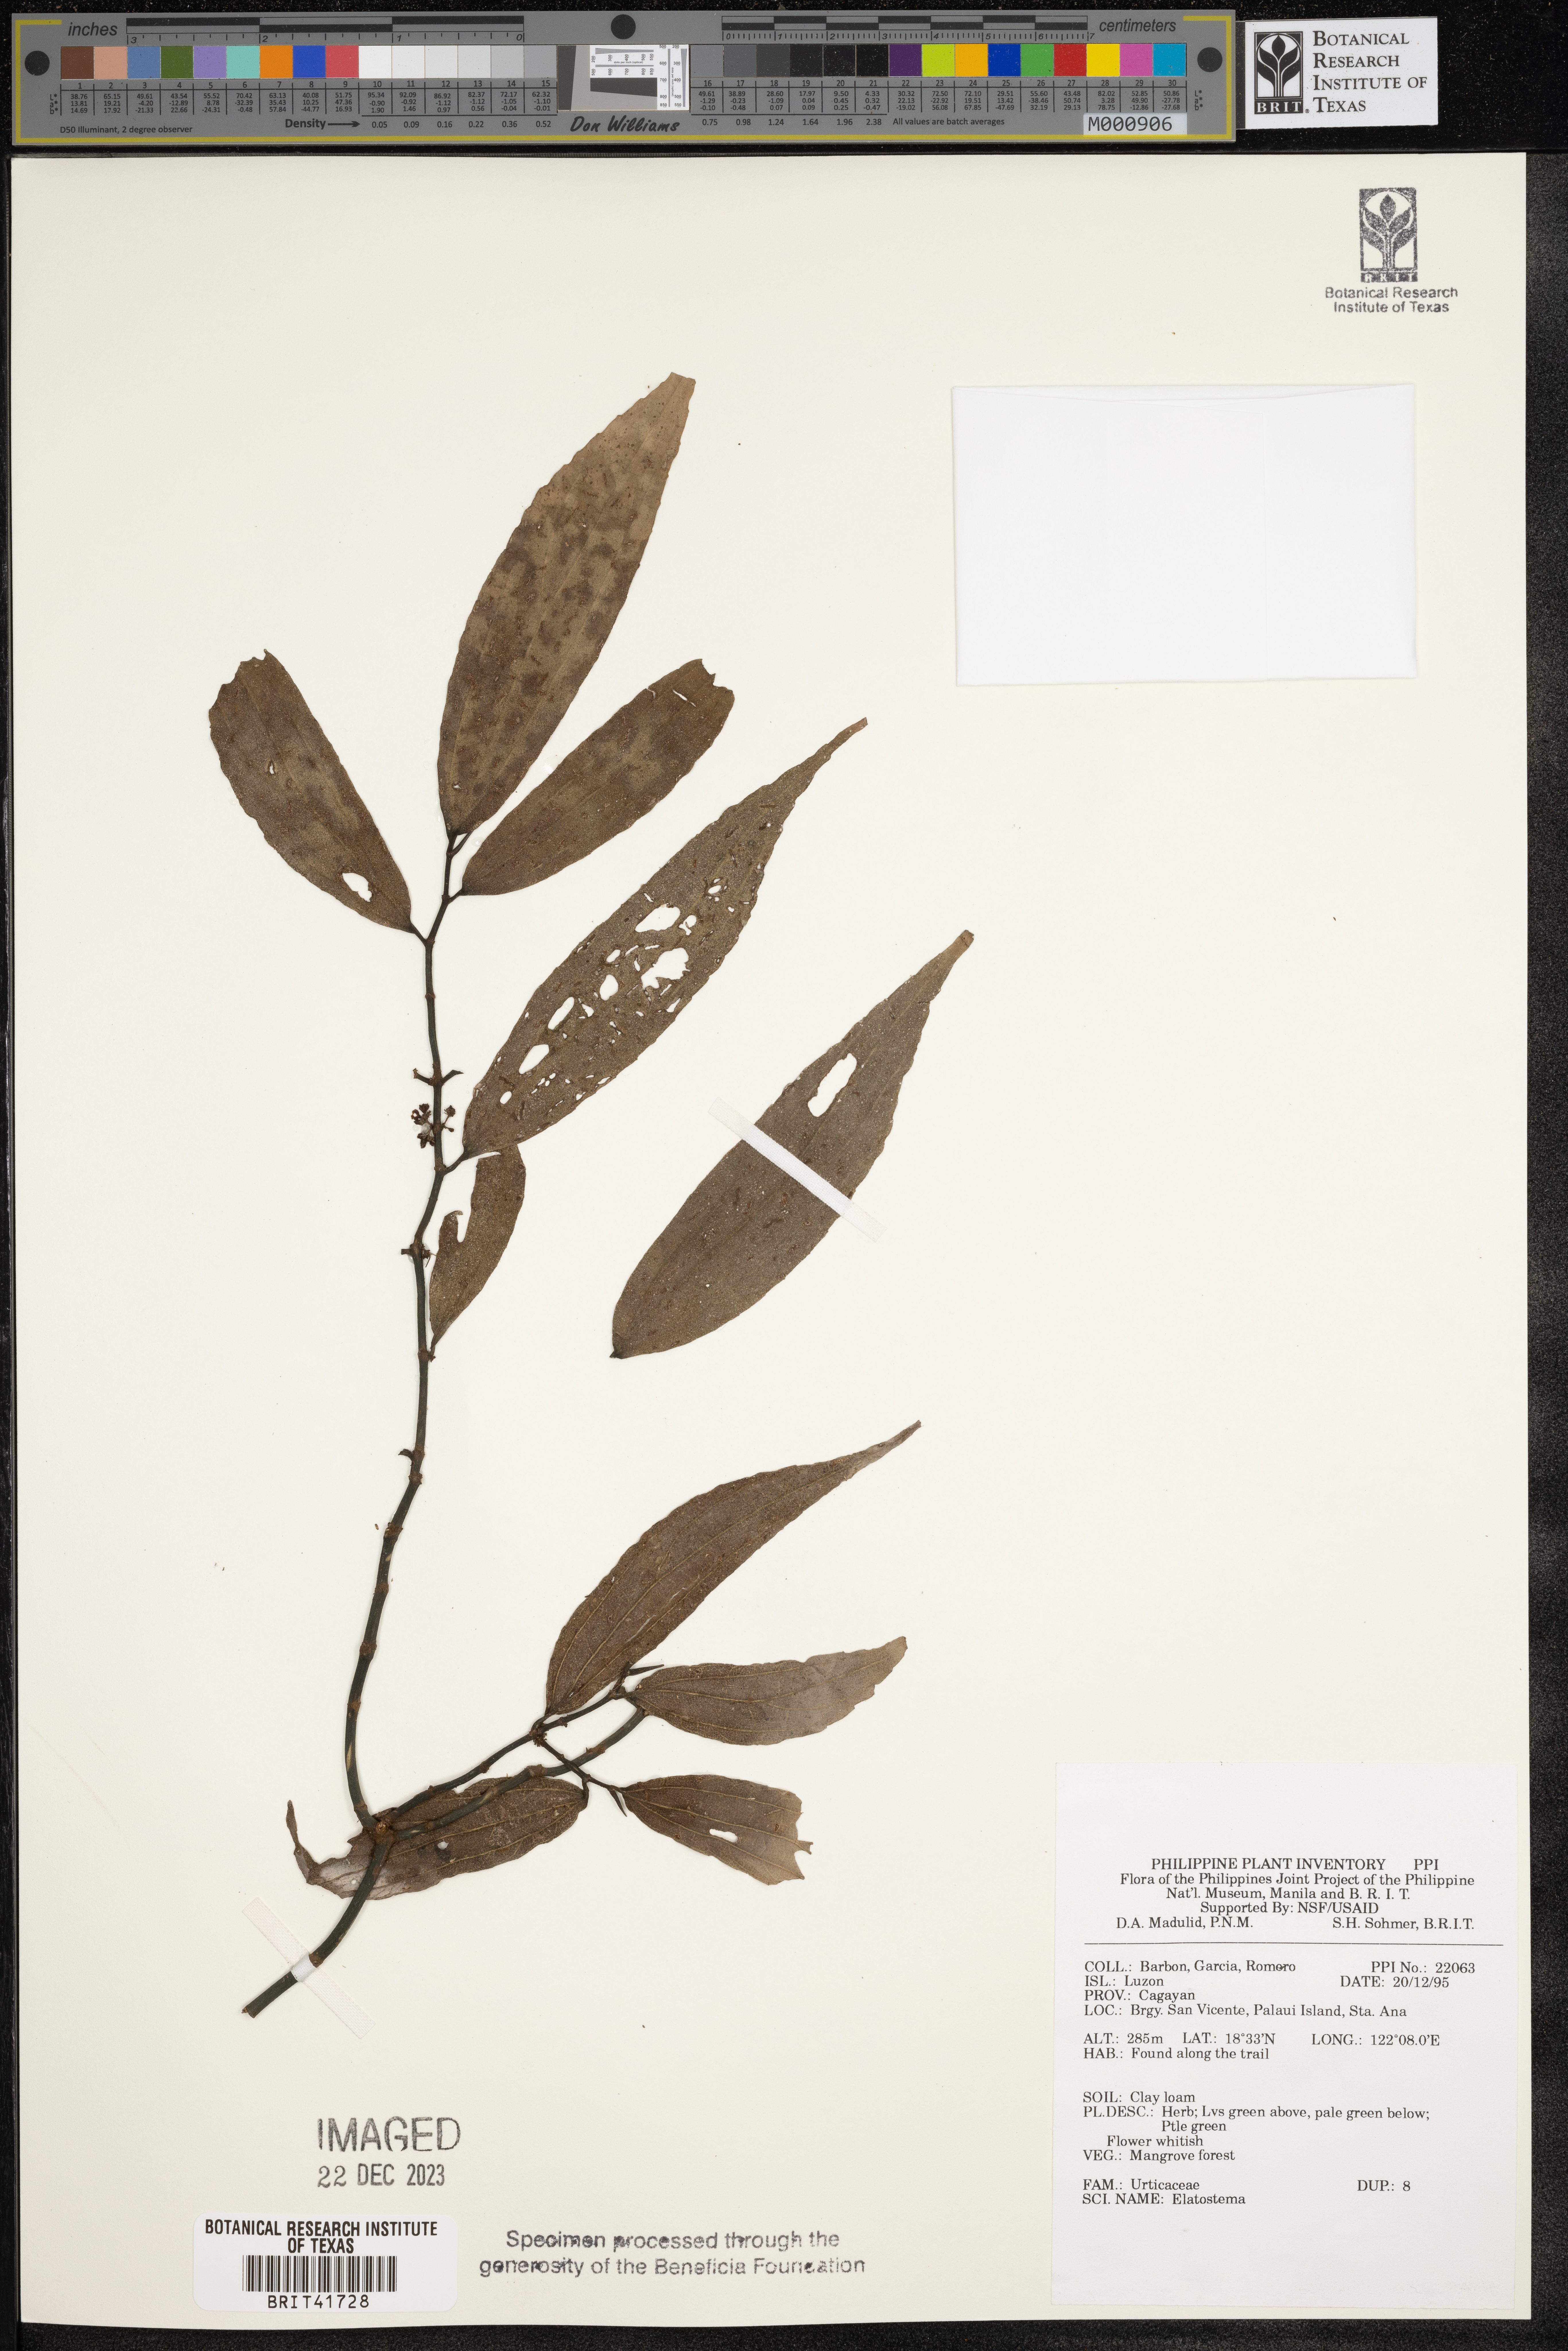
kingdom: Plantae
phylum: Tracheophyta
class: Magnoliopsida
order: Rosales
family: Urticaceae
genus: Elatostema
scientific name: Elatostema
